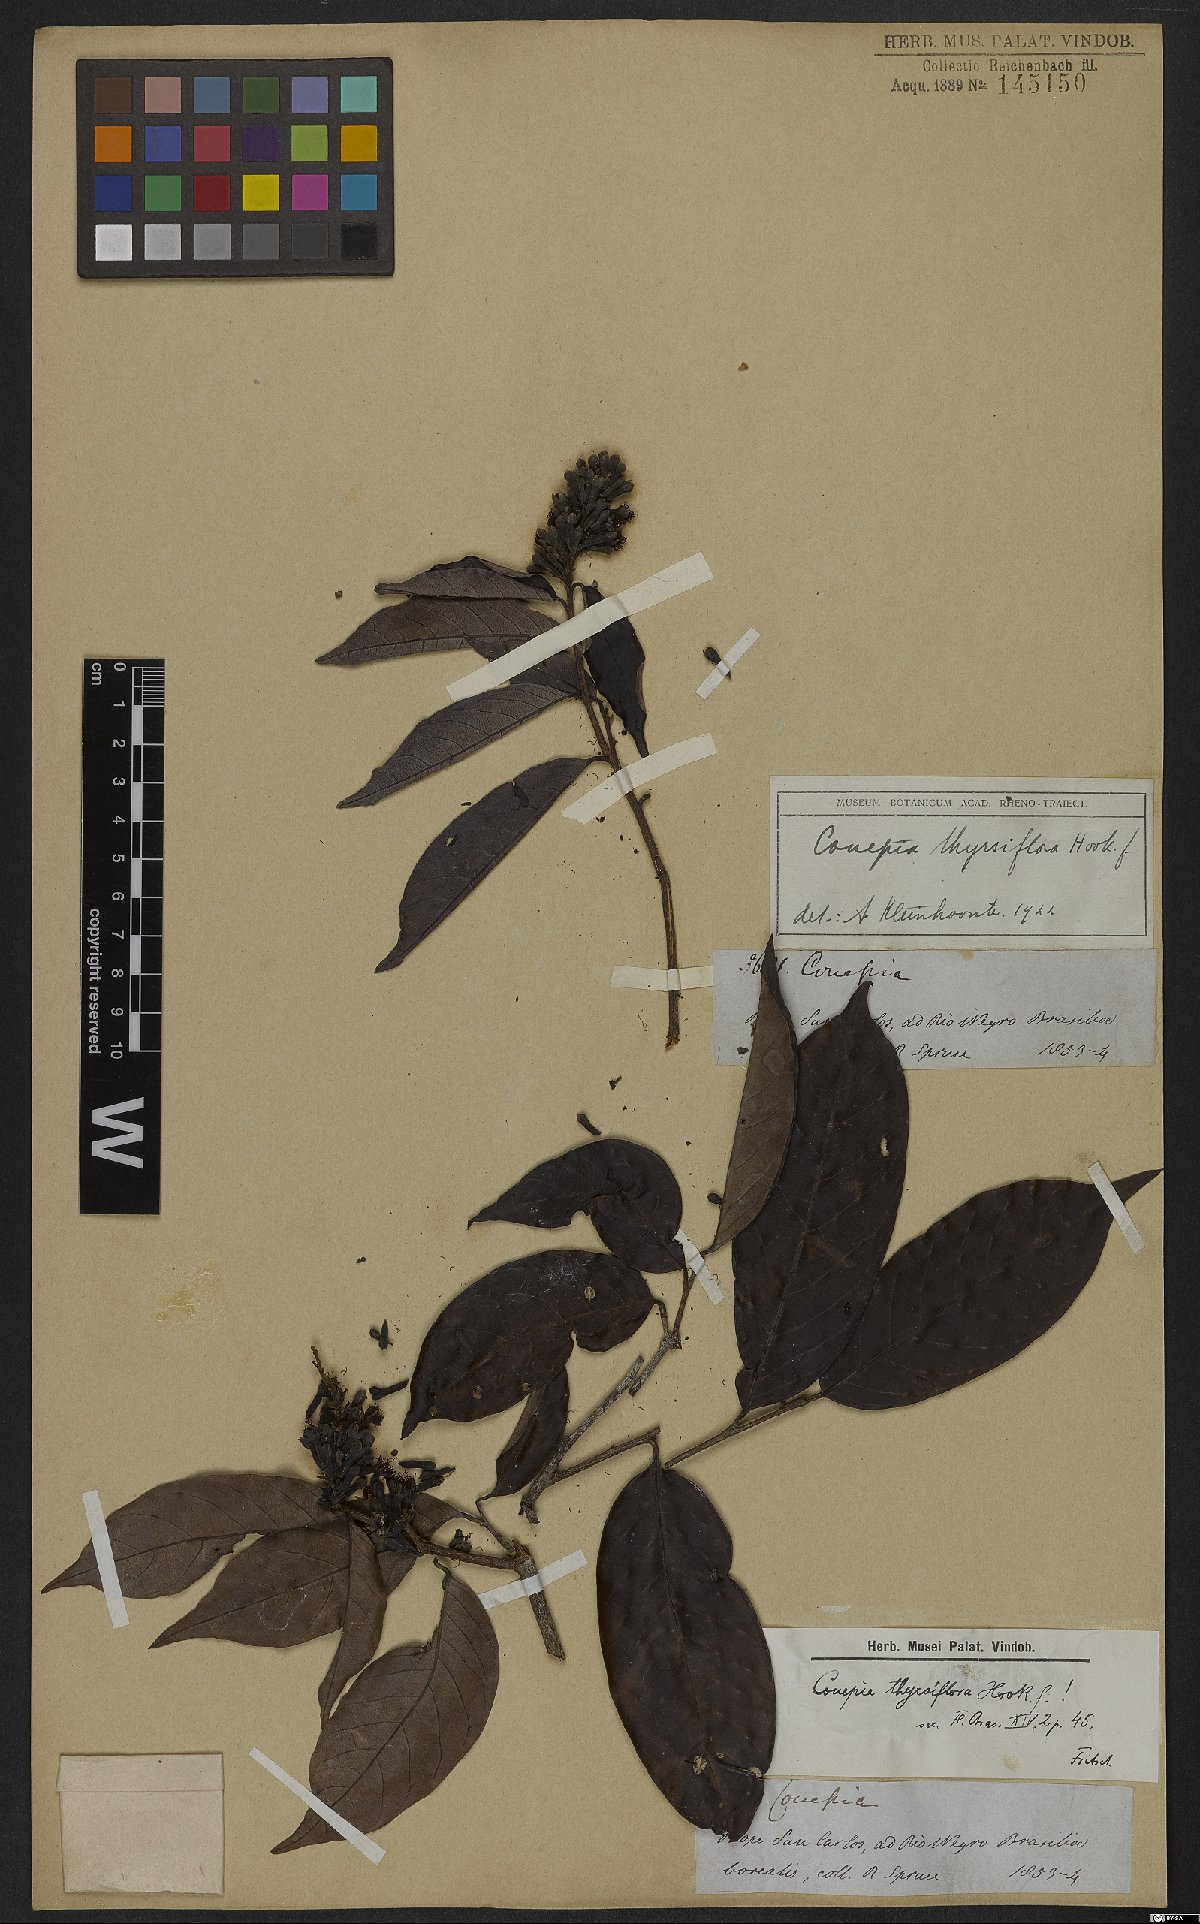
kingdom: Plantae
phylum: Tracheophyta
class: Magnoliopsida
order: Malpighiales
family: Chrysobalanaceae
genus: Couepia
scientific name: Couepia guianensis
